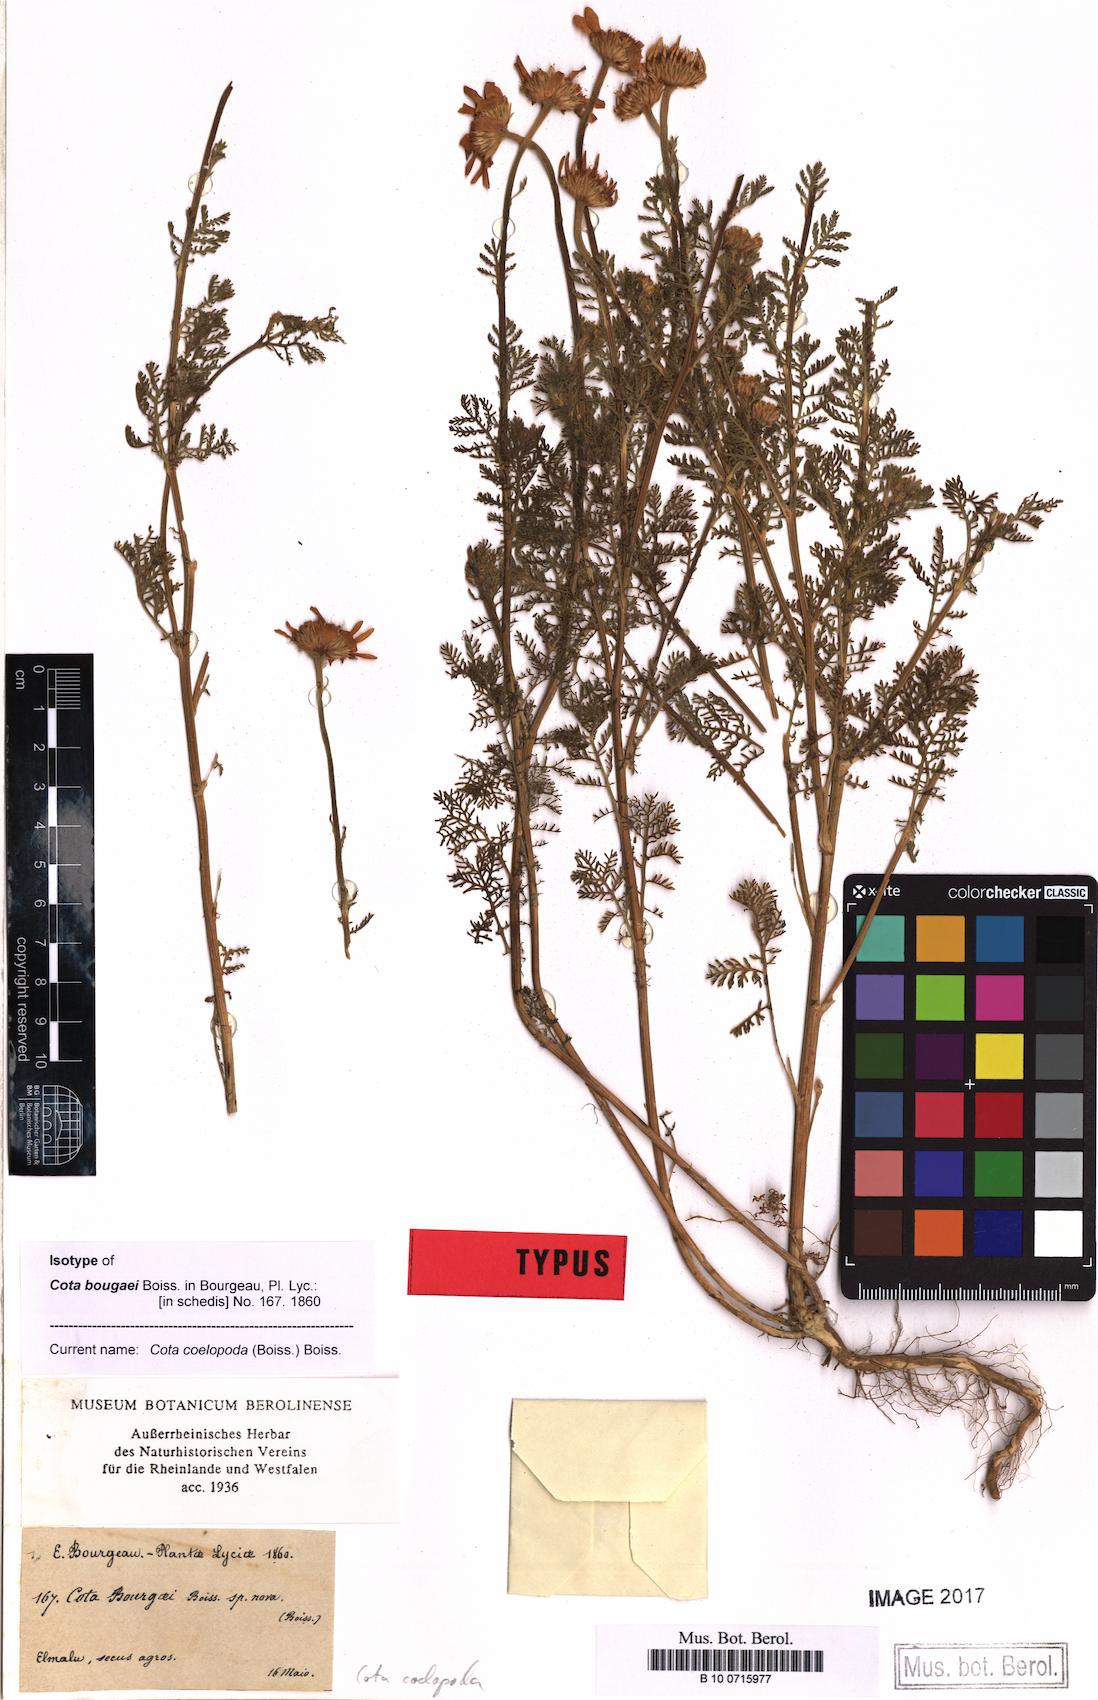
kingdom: Plantae
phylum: Tracheophyta
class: Magnoliopsida
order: Asterales
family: Asteraceae
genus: Cota
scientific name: Cota coelopoda
